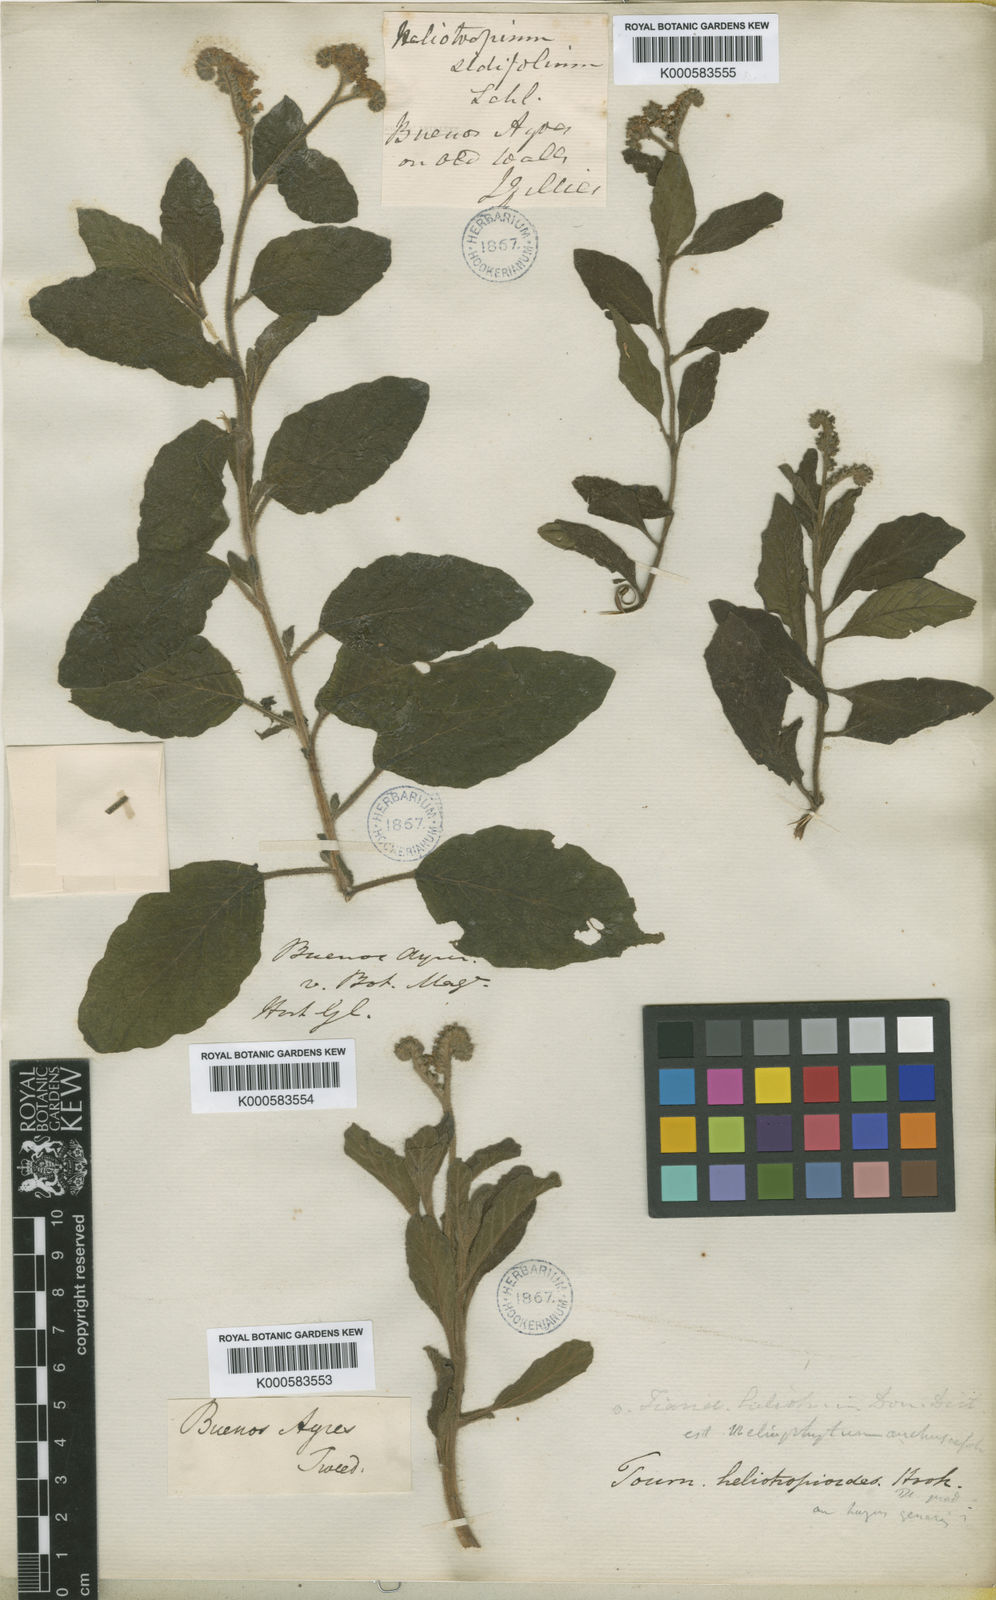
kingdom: Plantae
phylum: Tracheophyta
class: Magnoliopsida
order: Boraginales
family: Heliotropiaceae
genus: Heliotropium
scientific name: Heliotropium nicotianifolium
